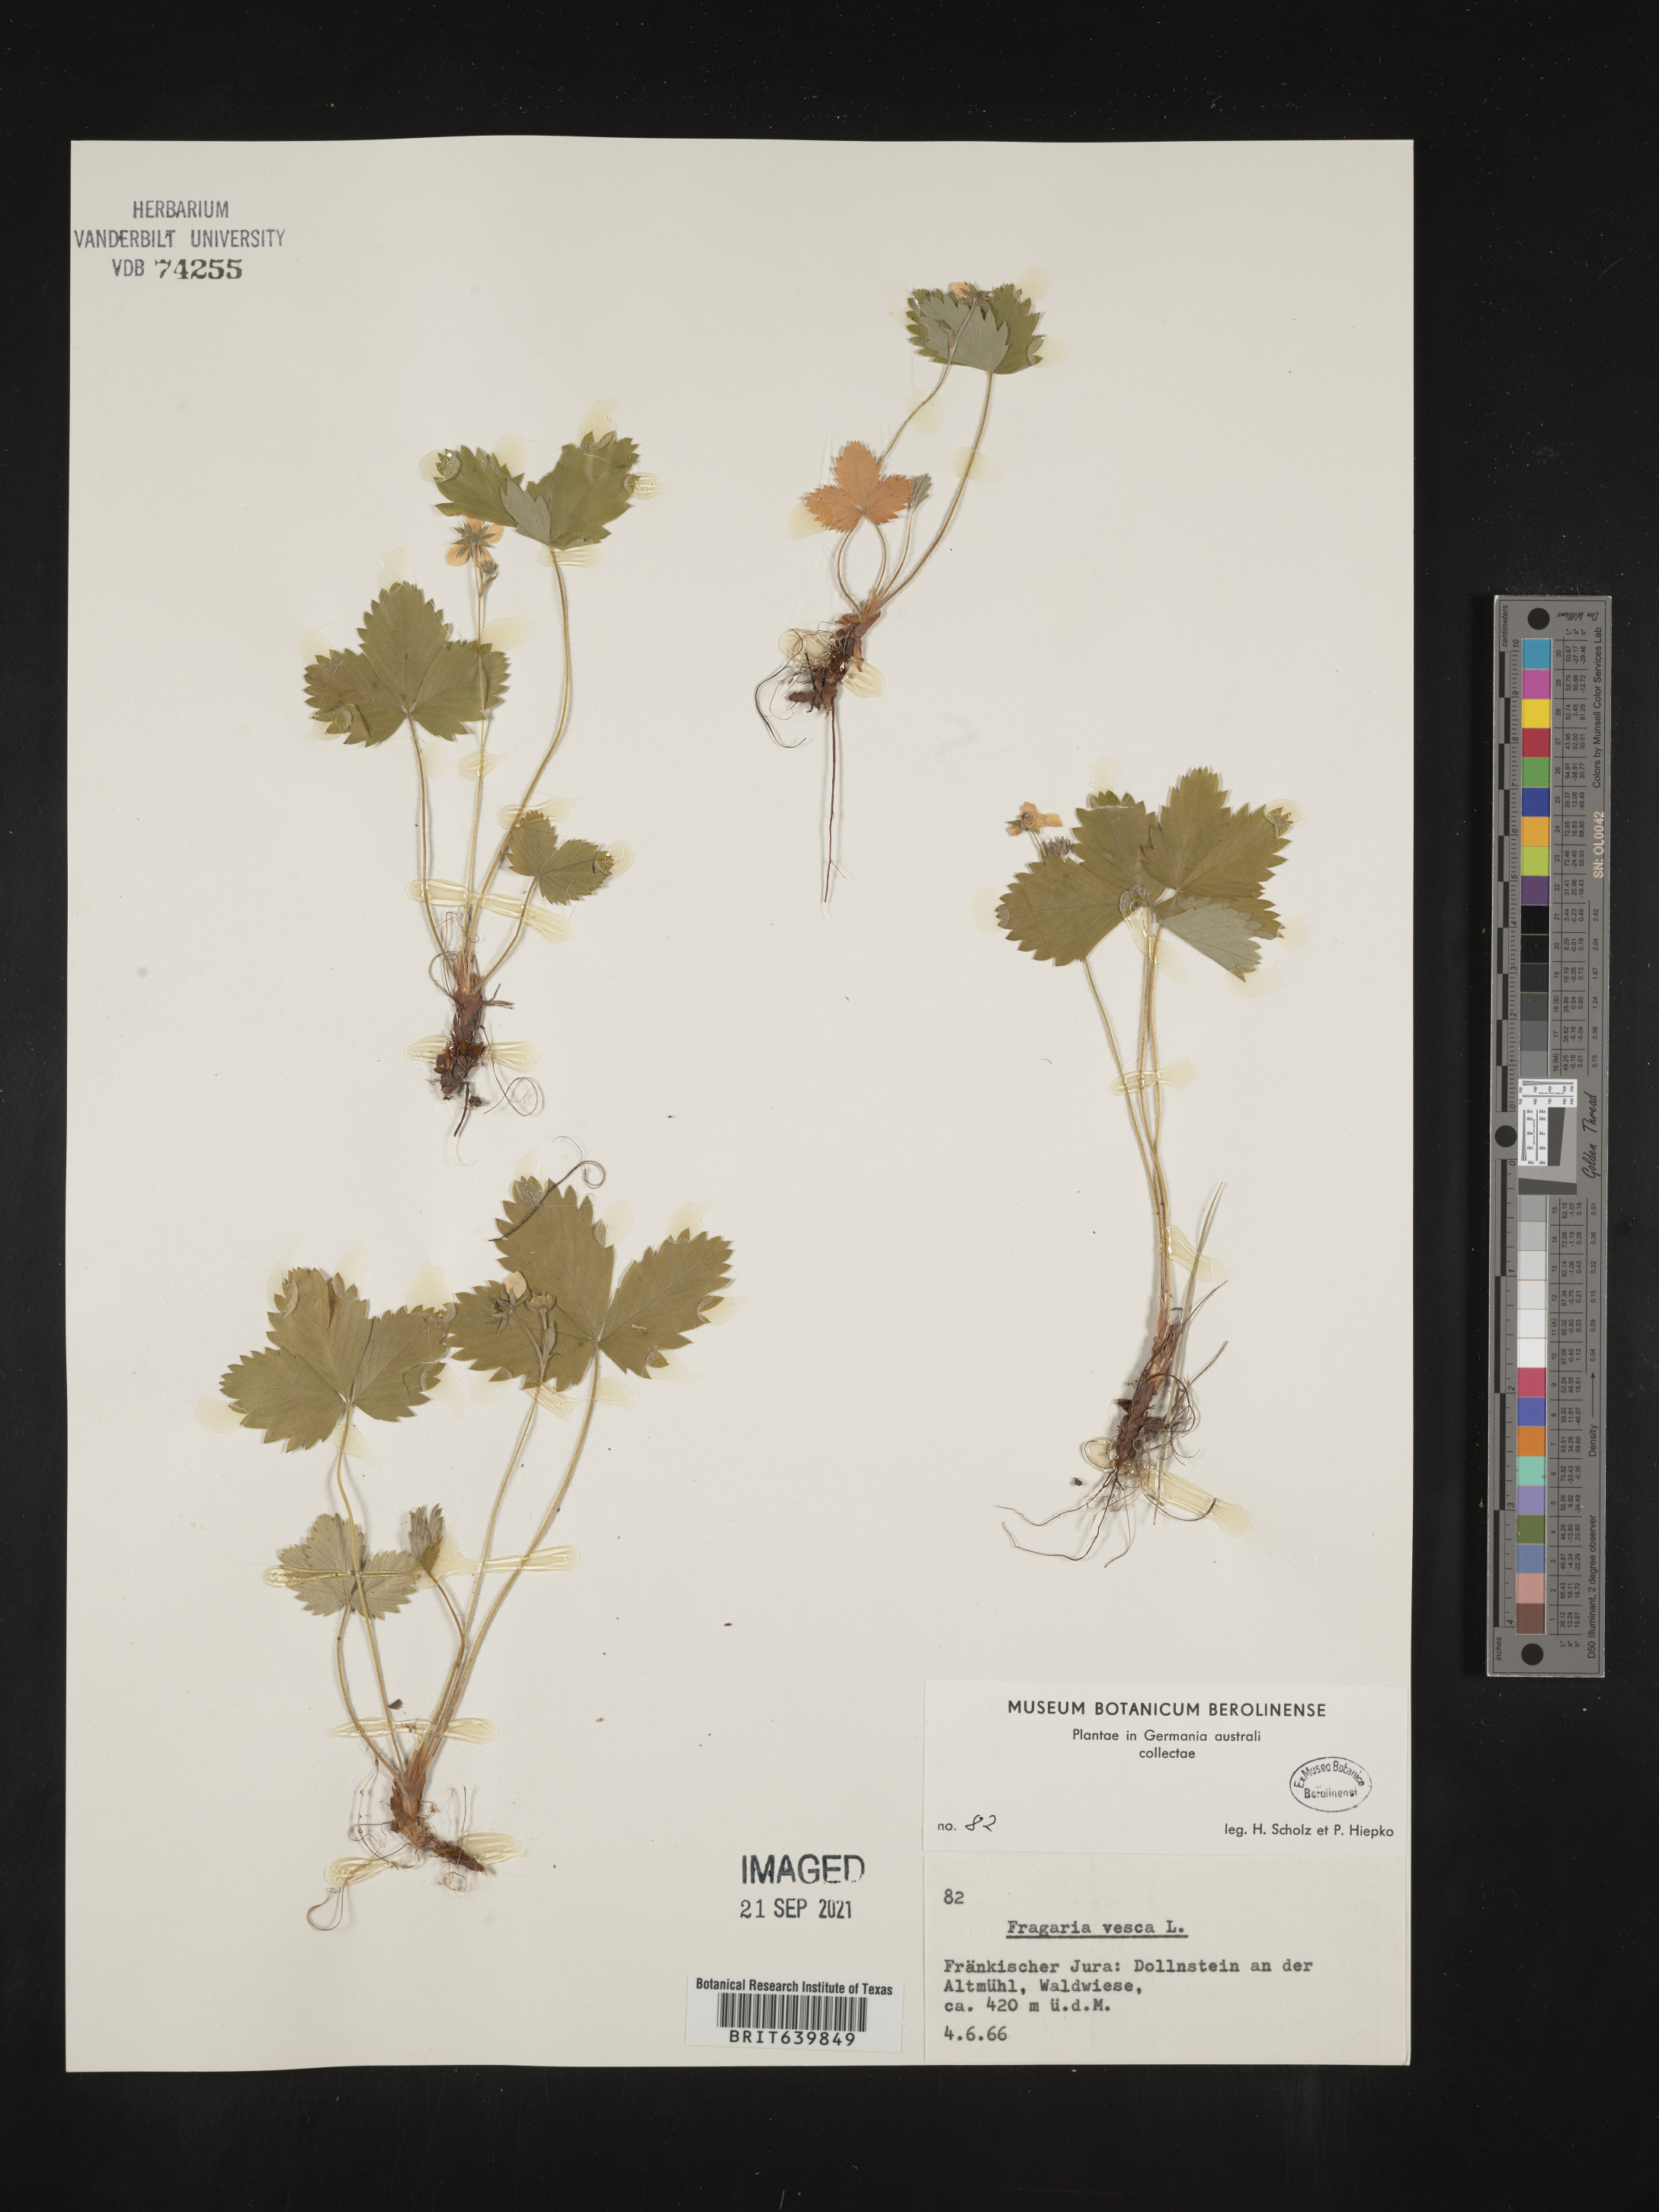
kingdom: Plantae
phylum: Tracheophyta
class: Magnoliopsida
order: Rosales
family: Rosaceae
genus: Fragaria
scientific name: Fragaria
